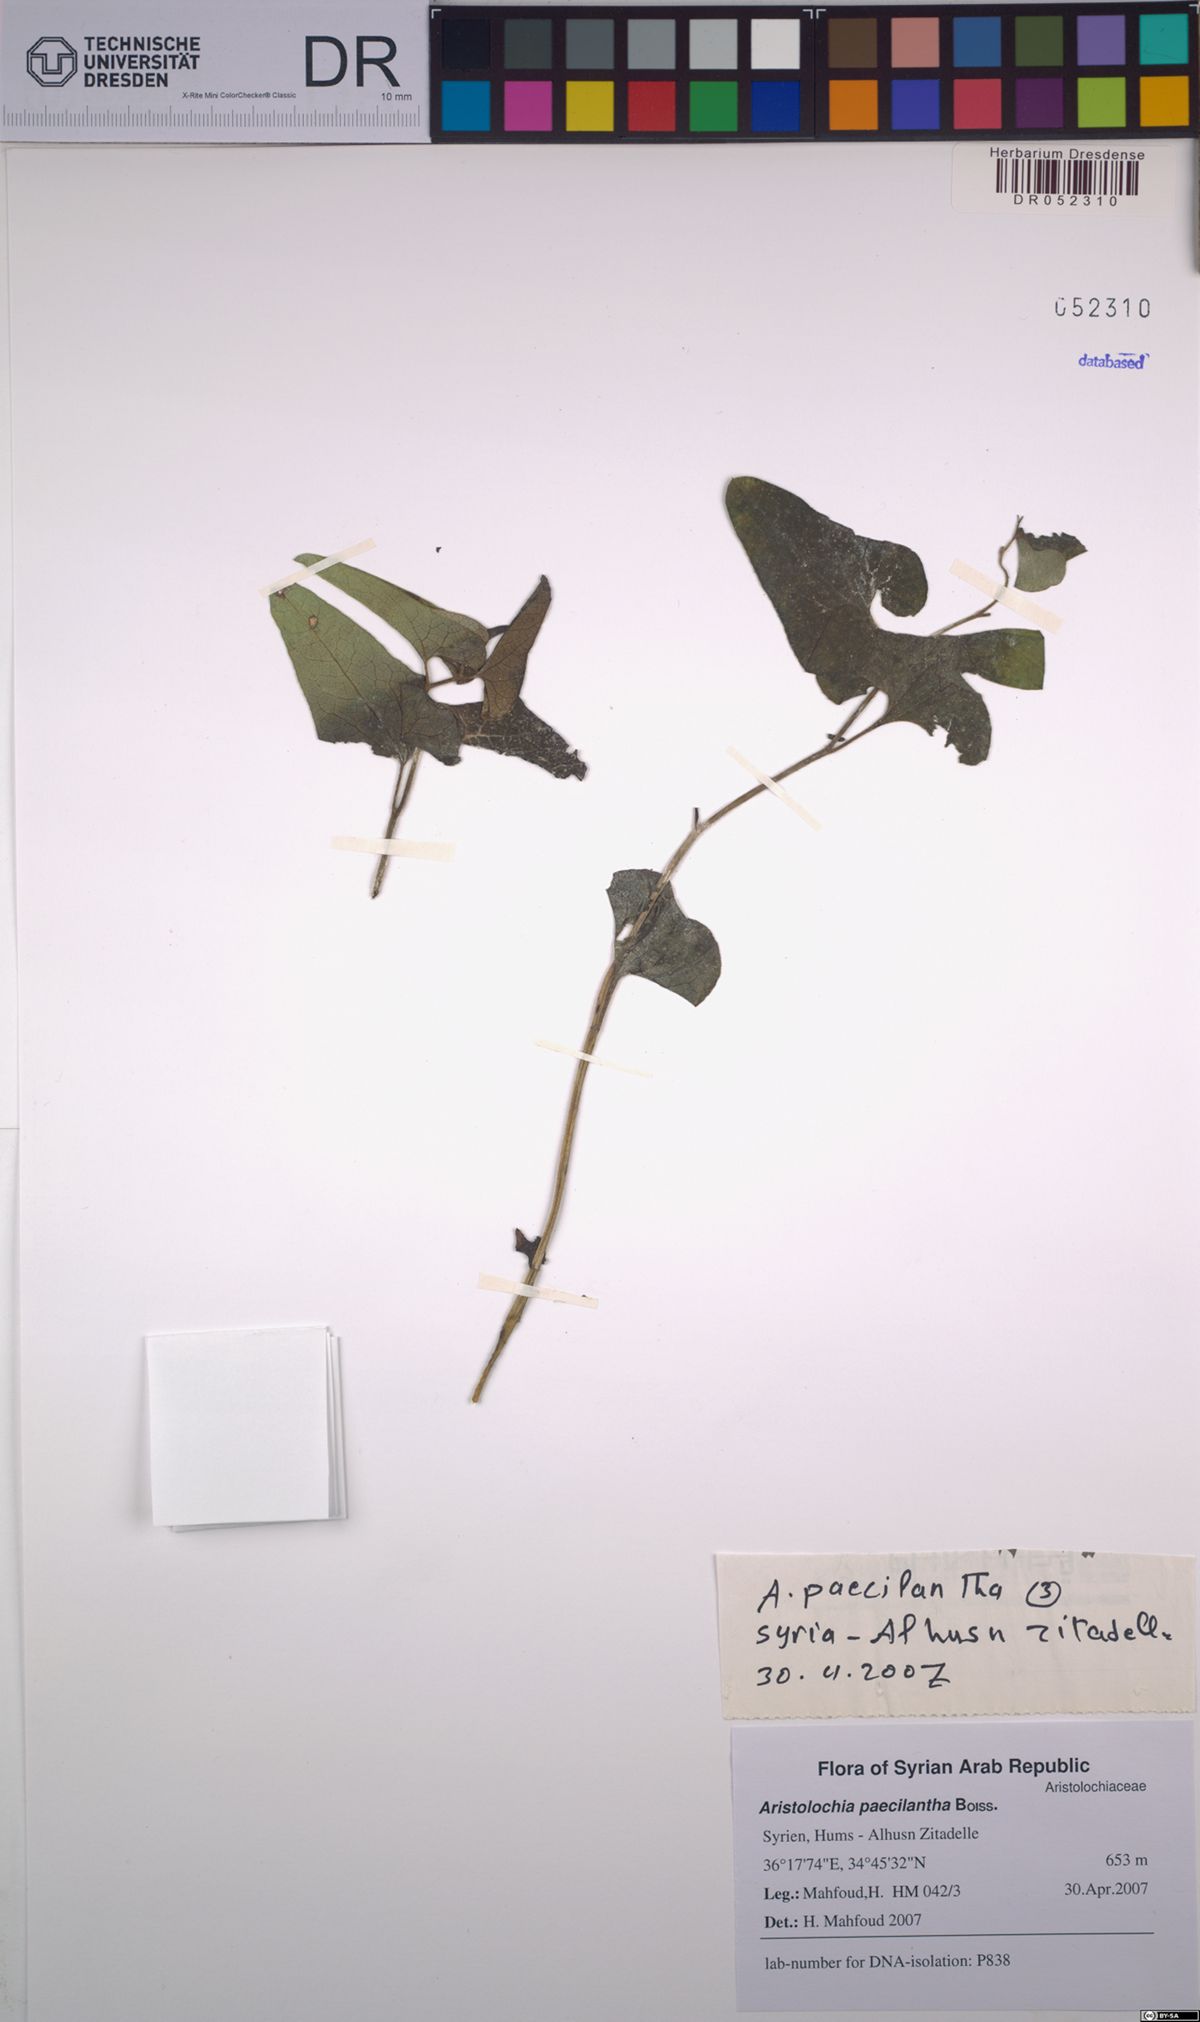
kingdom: Plantae
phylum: Tracheophyta
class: Magnoliopsida
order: Piperales
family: Aristolochiaceae
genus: Aristolochia
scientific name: Aristolochia paecilantha
